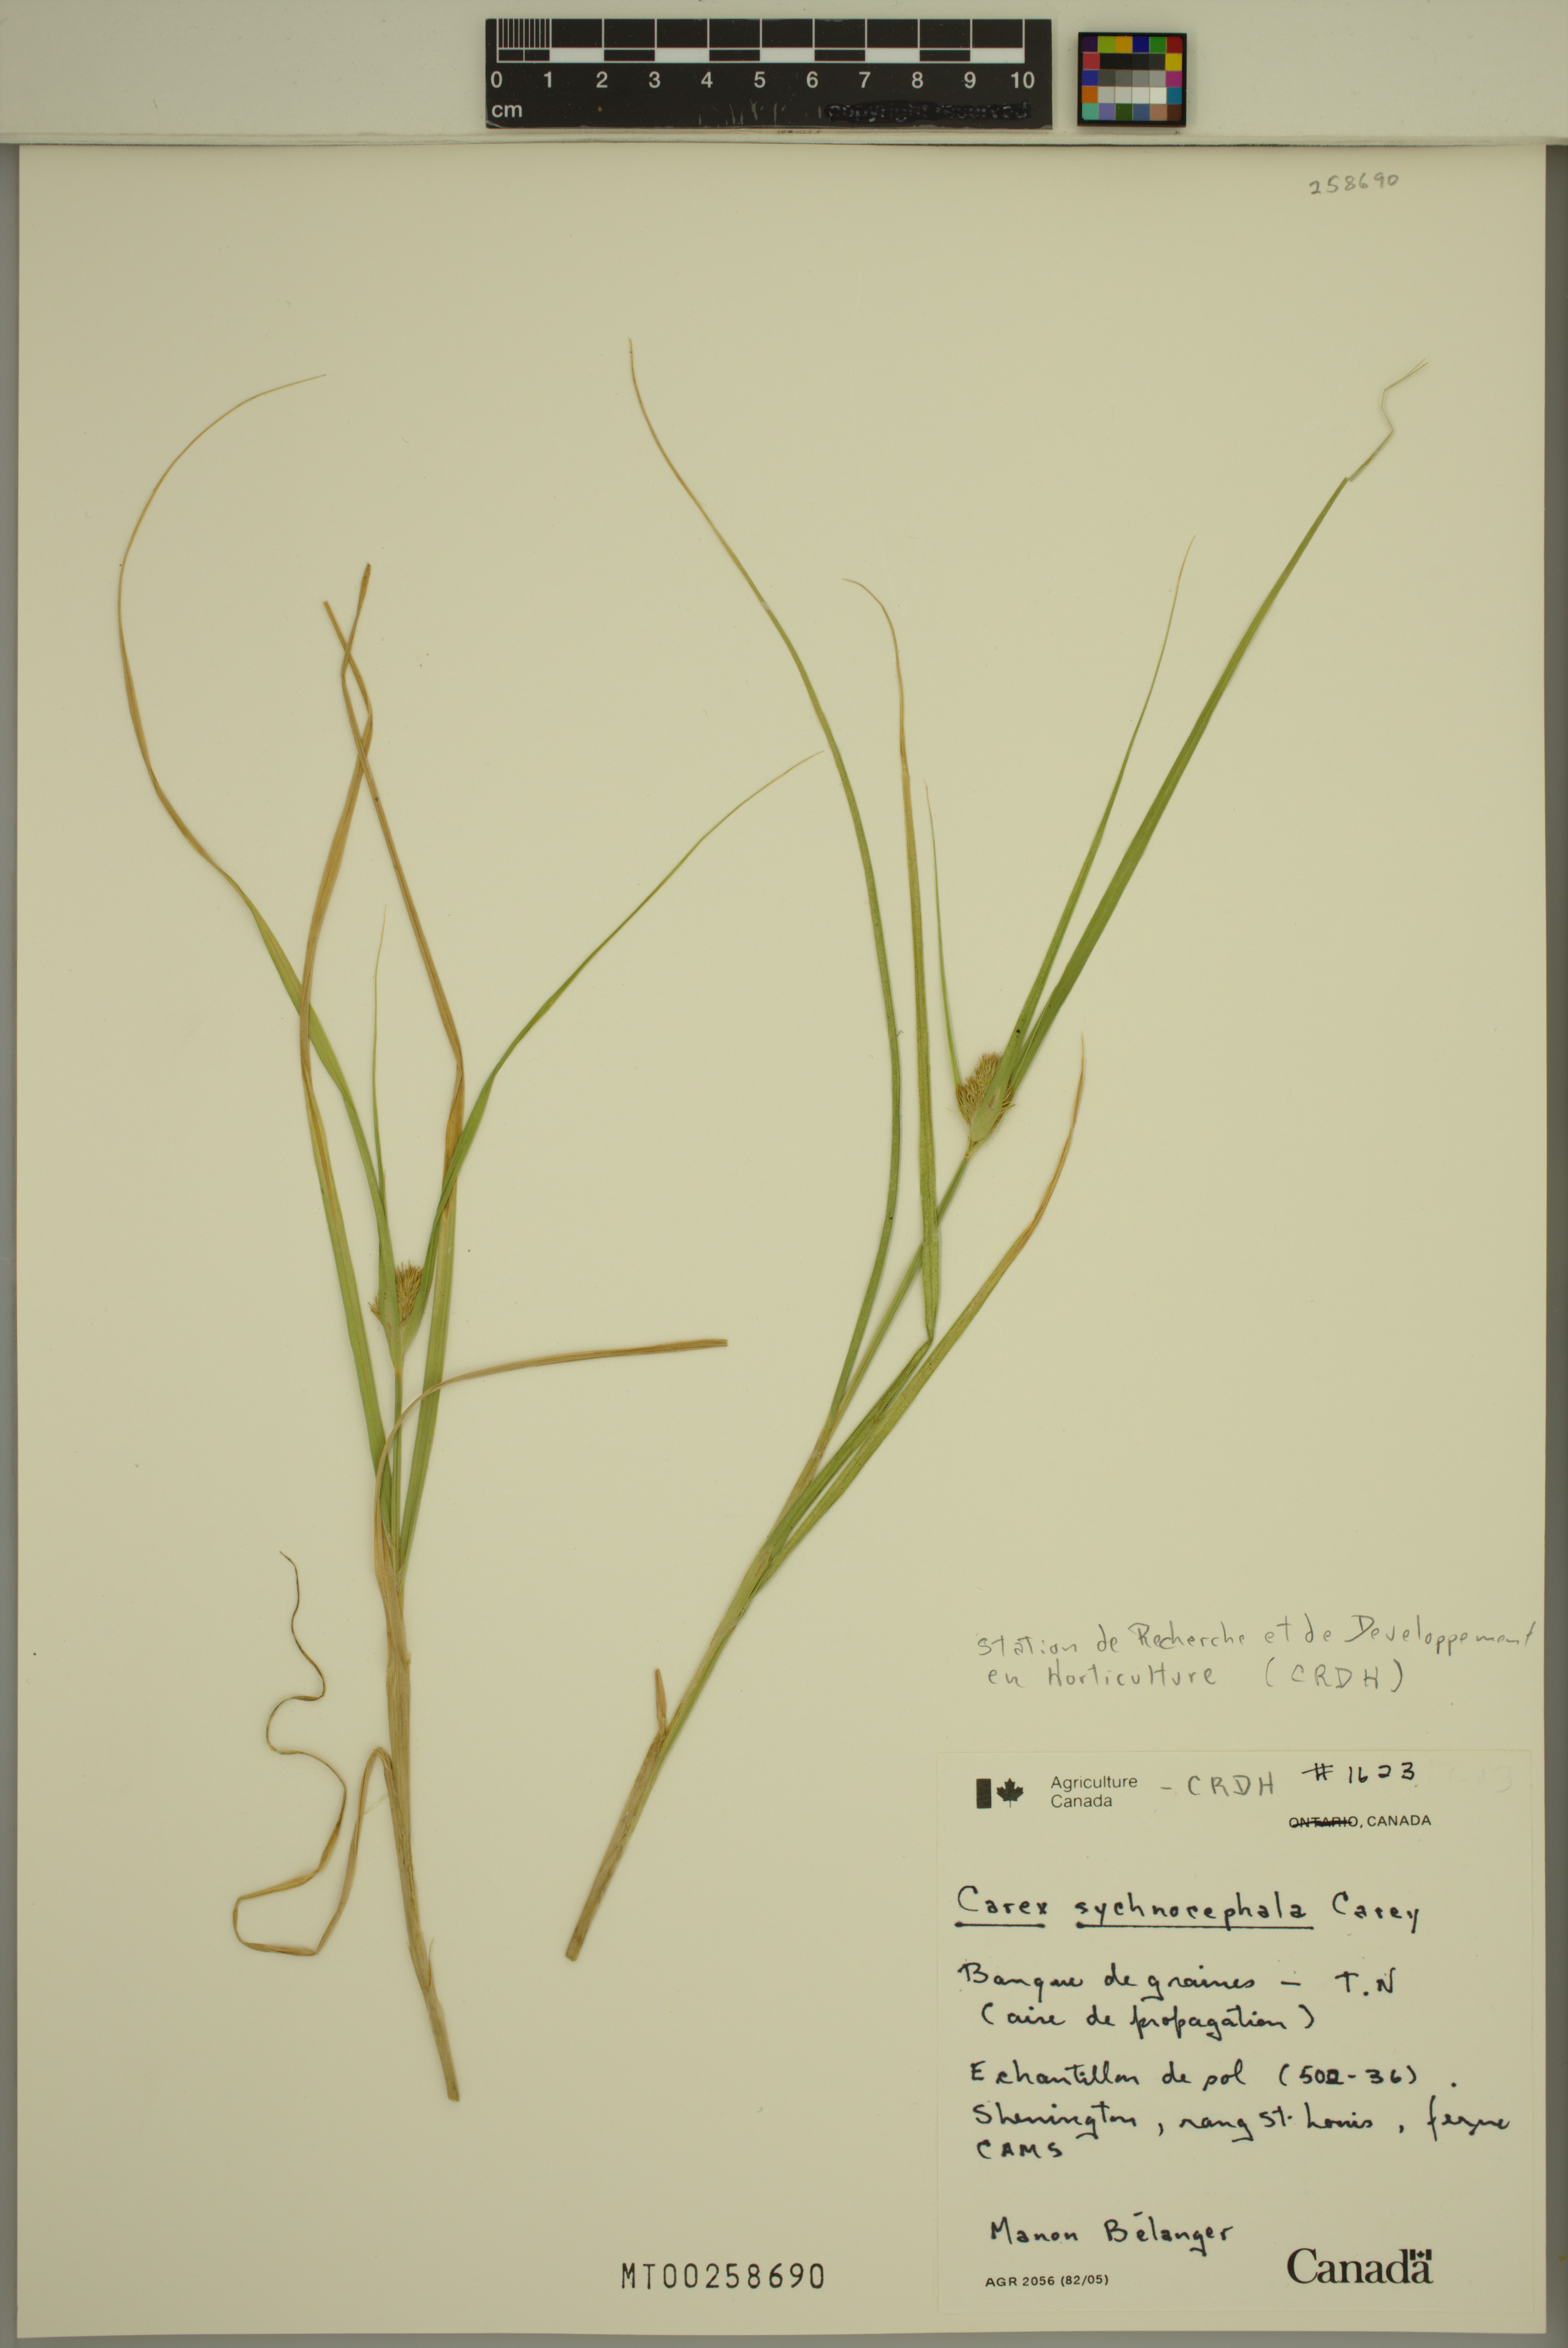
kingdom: Plantae
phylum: Tracheophyta
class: Liliopsida
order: Poales
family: Cyperaceae
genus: Carex
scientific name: Carex sychnocephala
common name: Dense long-beaked sedge
